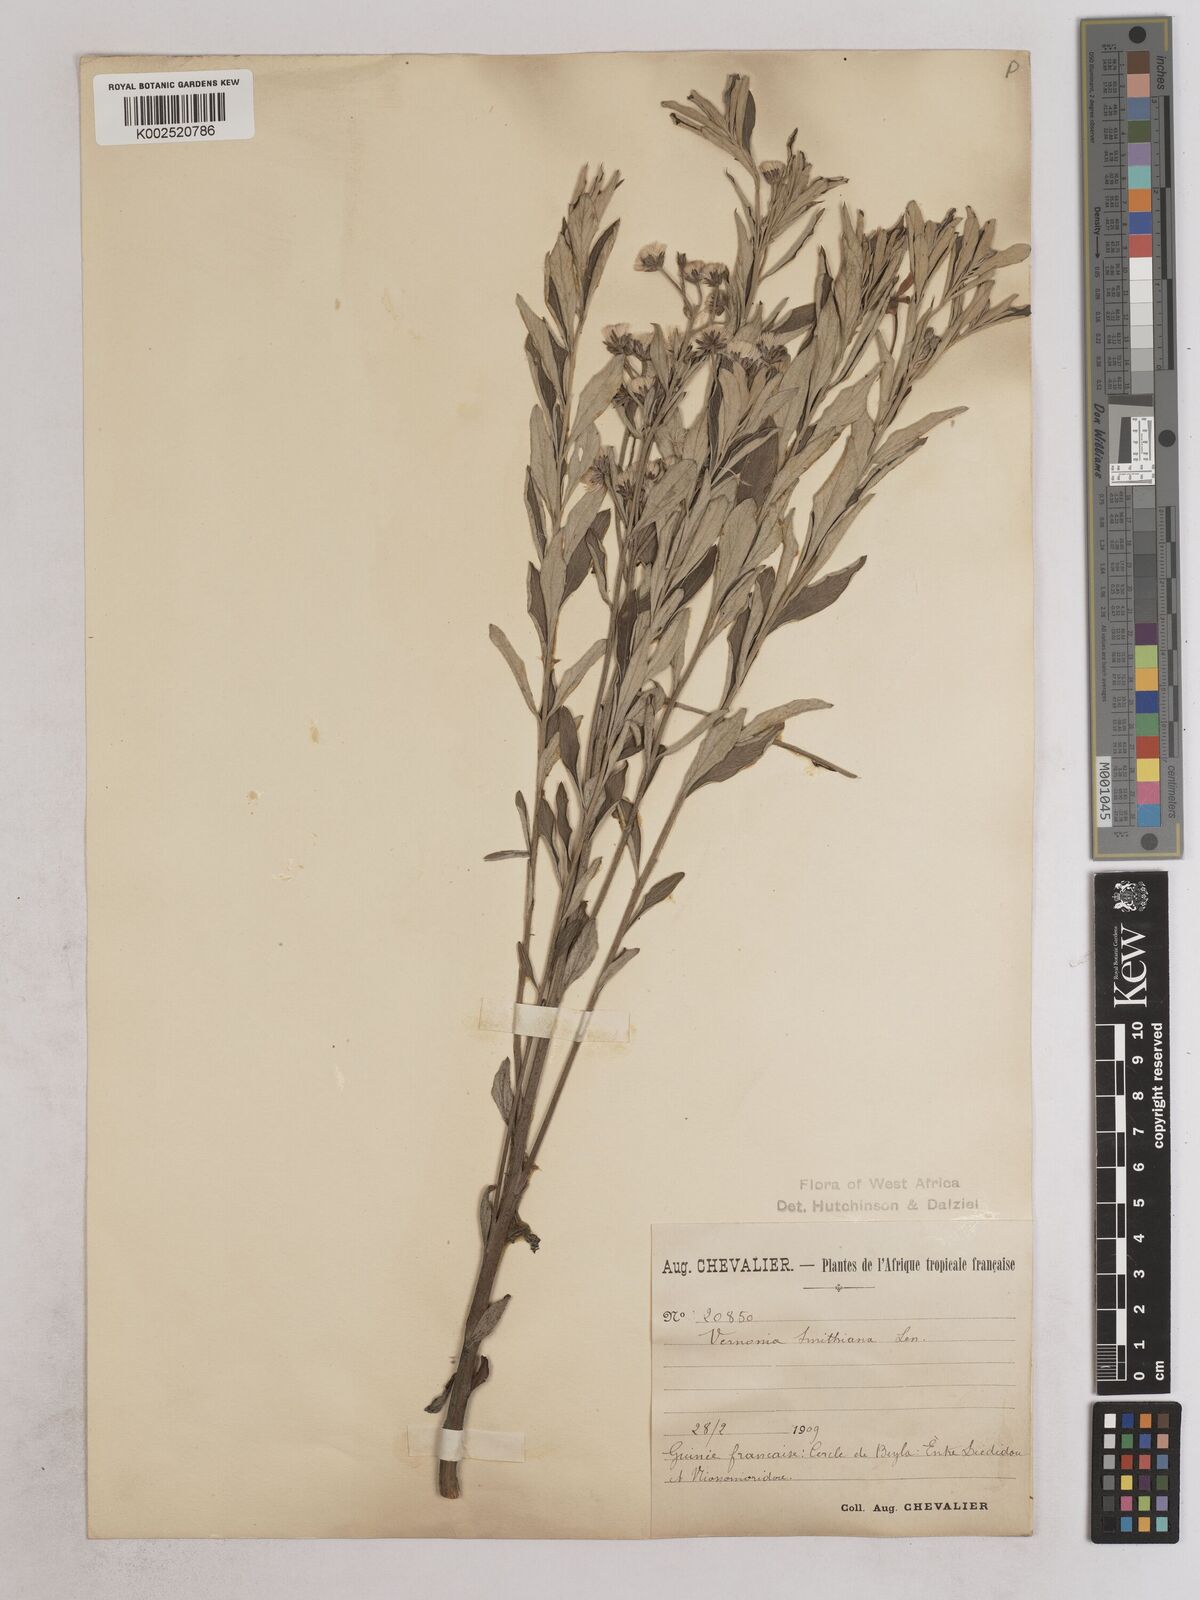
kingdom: Plantae
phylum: Tracheophyta
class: Magnoliopsida
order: Asterales
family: Asteraceae
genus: Hilliardiella
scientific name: Hilliardiella smithiana
